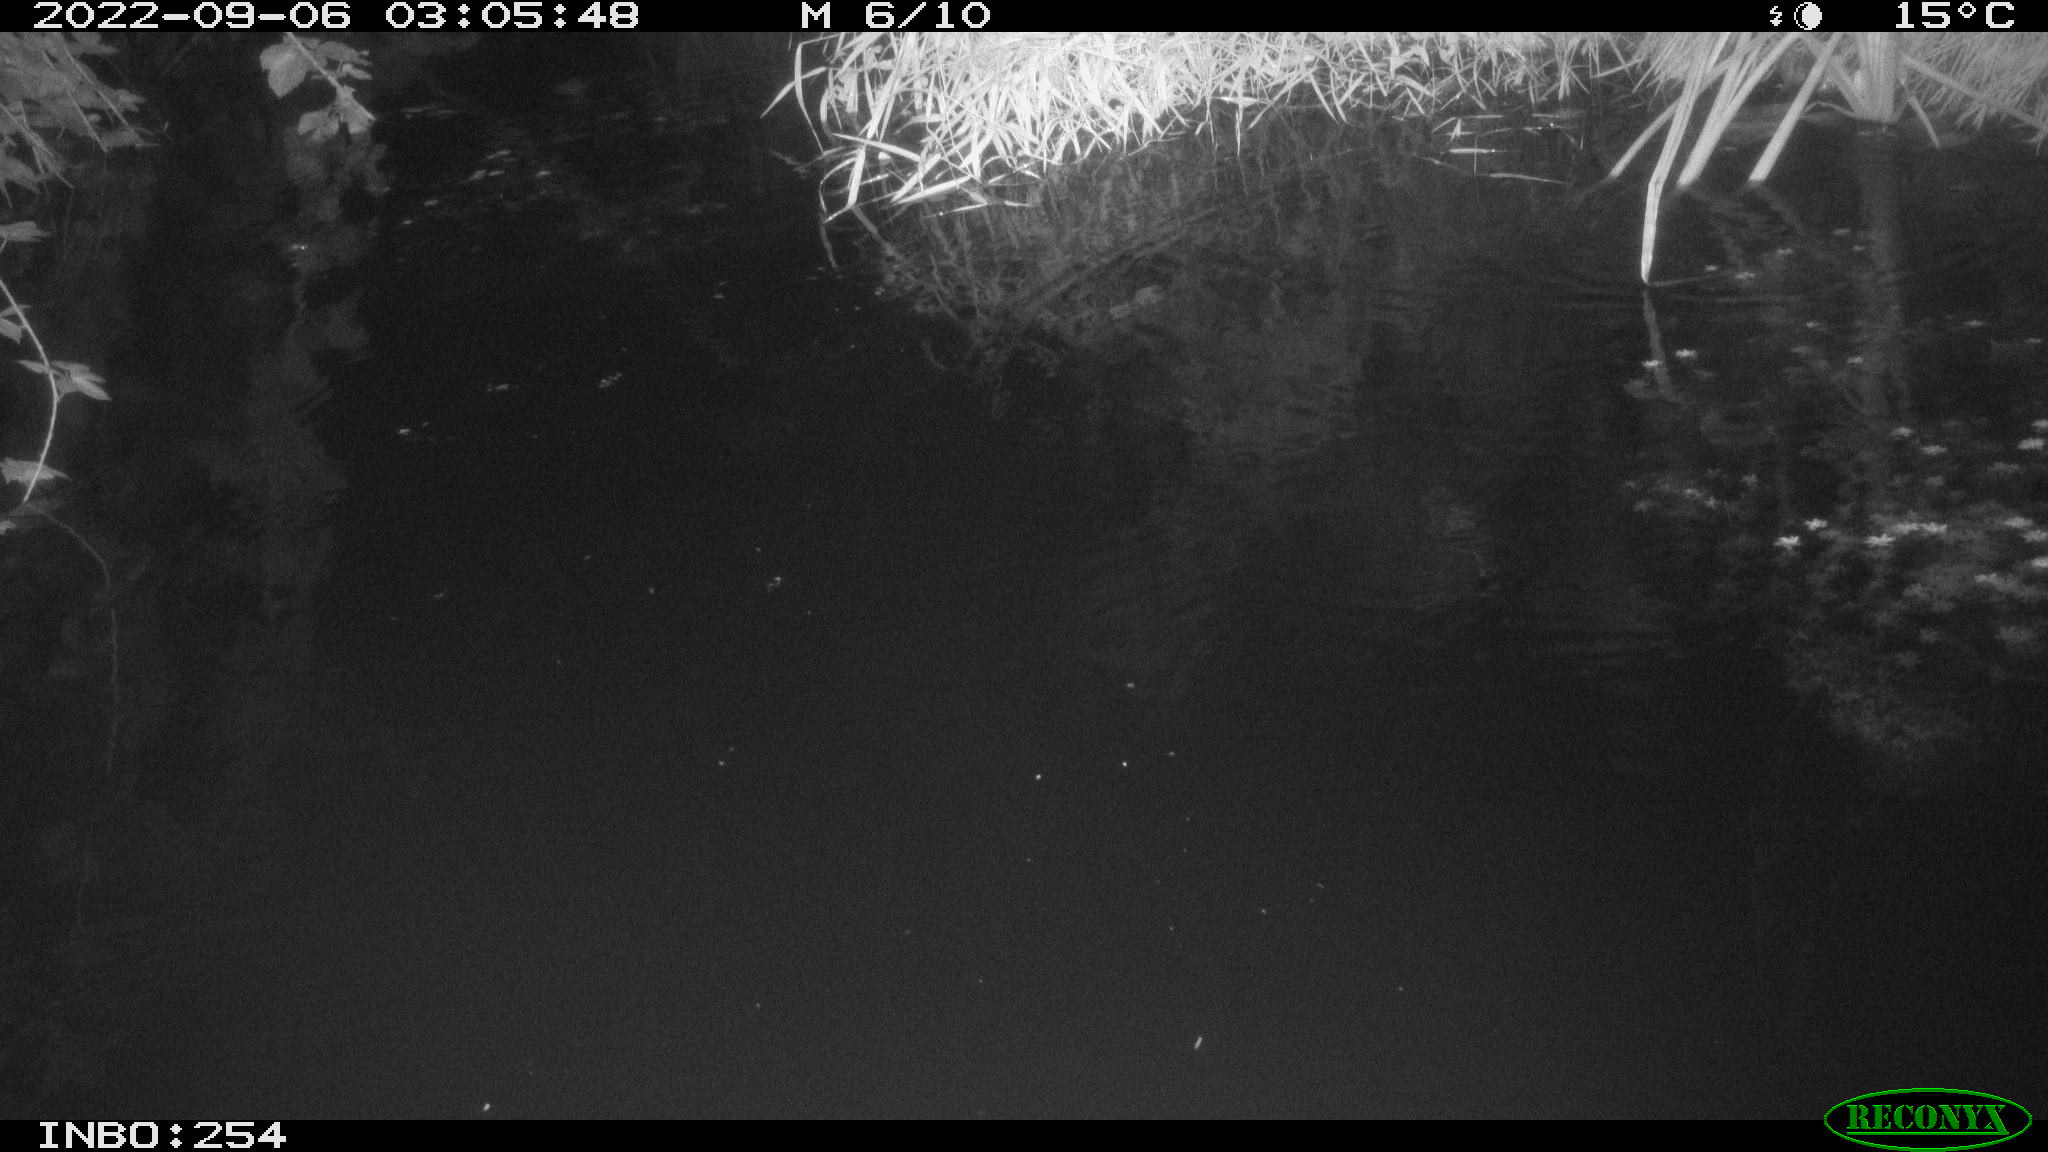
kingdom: Animalia
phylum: Chordata
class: Aves
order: Anseriformes
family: Anatidae
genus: Anas
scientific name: Anas platyrhynchos
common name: Mallard
